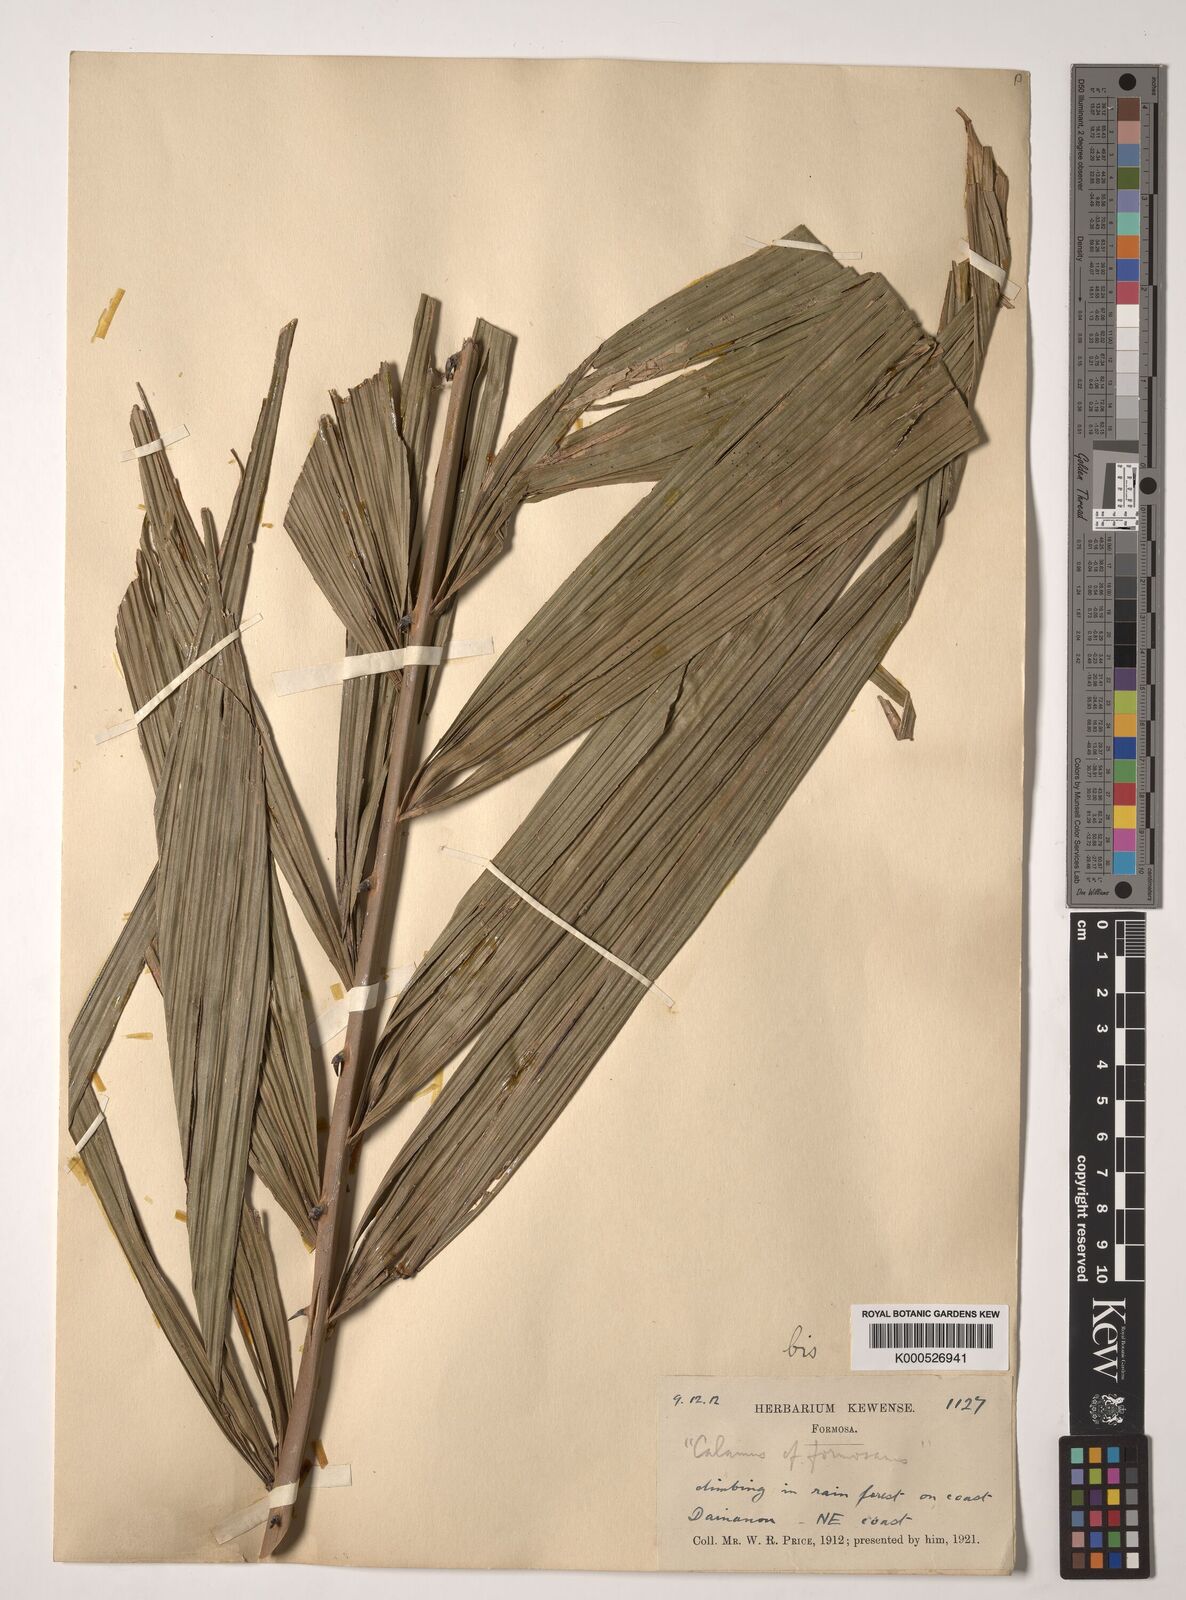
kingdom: Plantae
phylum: Tracheophyta
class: Liliopsida
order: Arecales
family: Arecaceae
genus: Calamus
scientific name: Calamus formosanus
